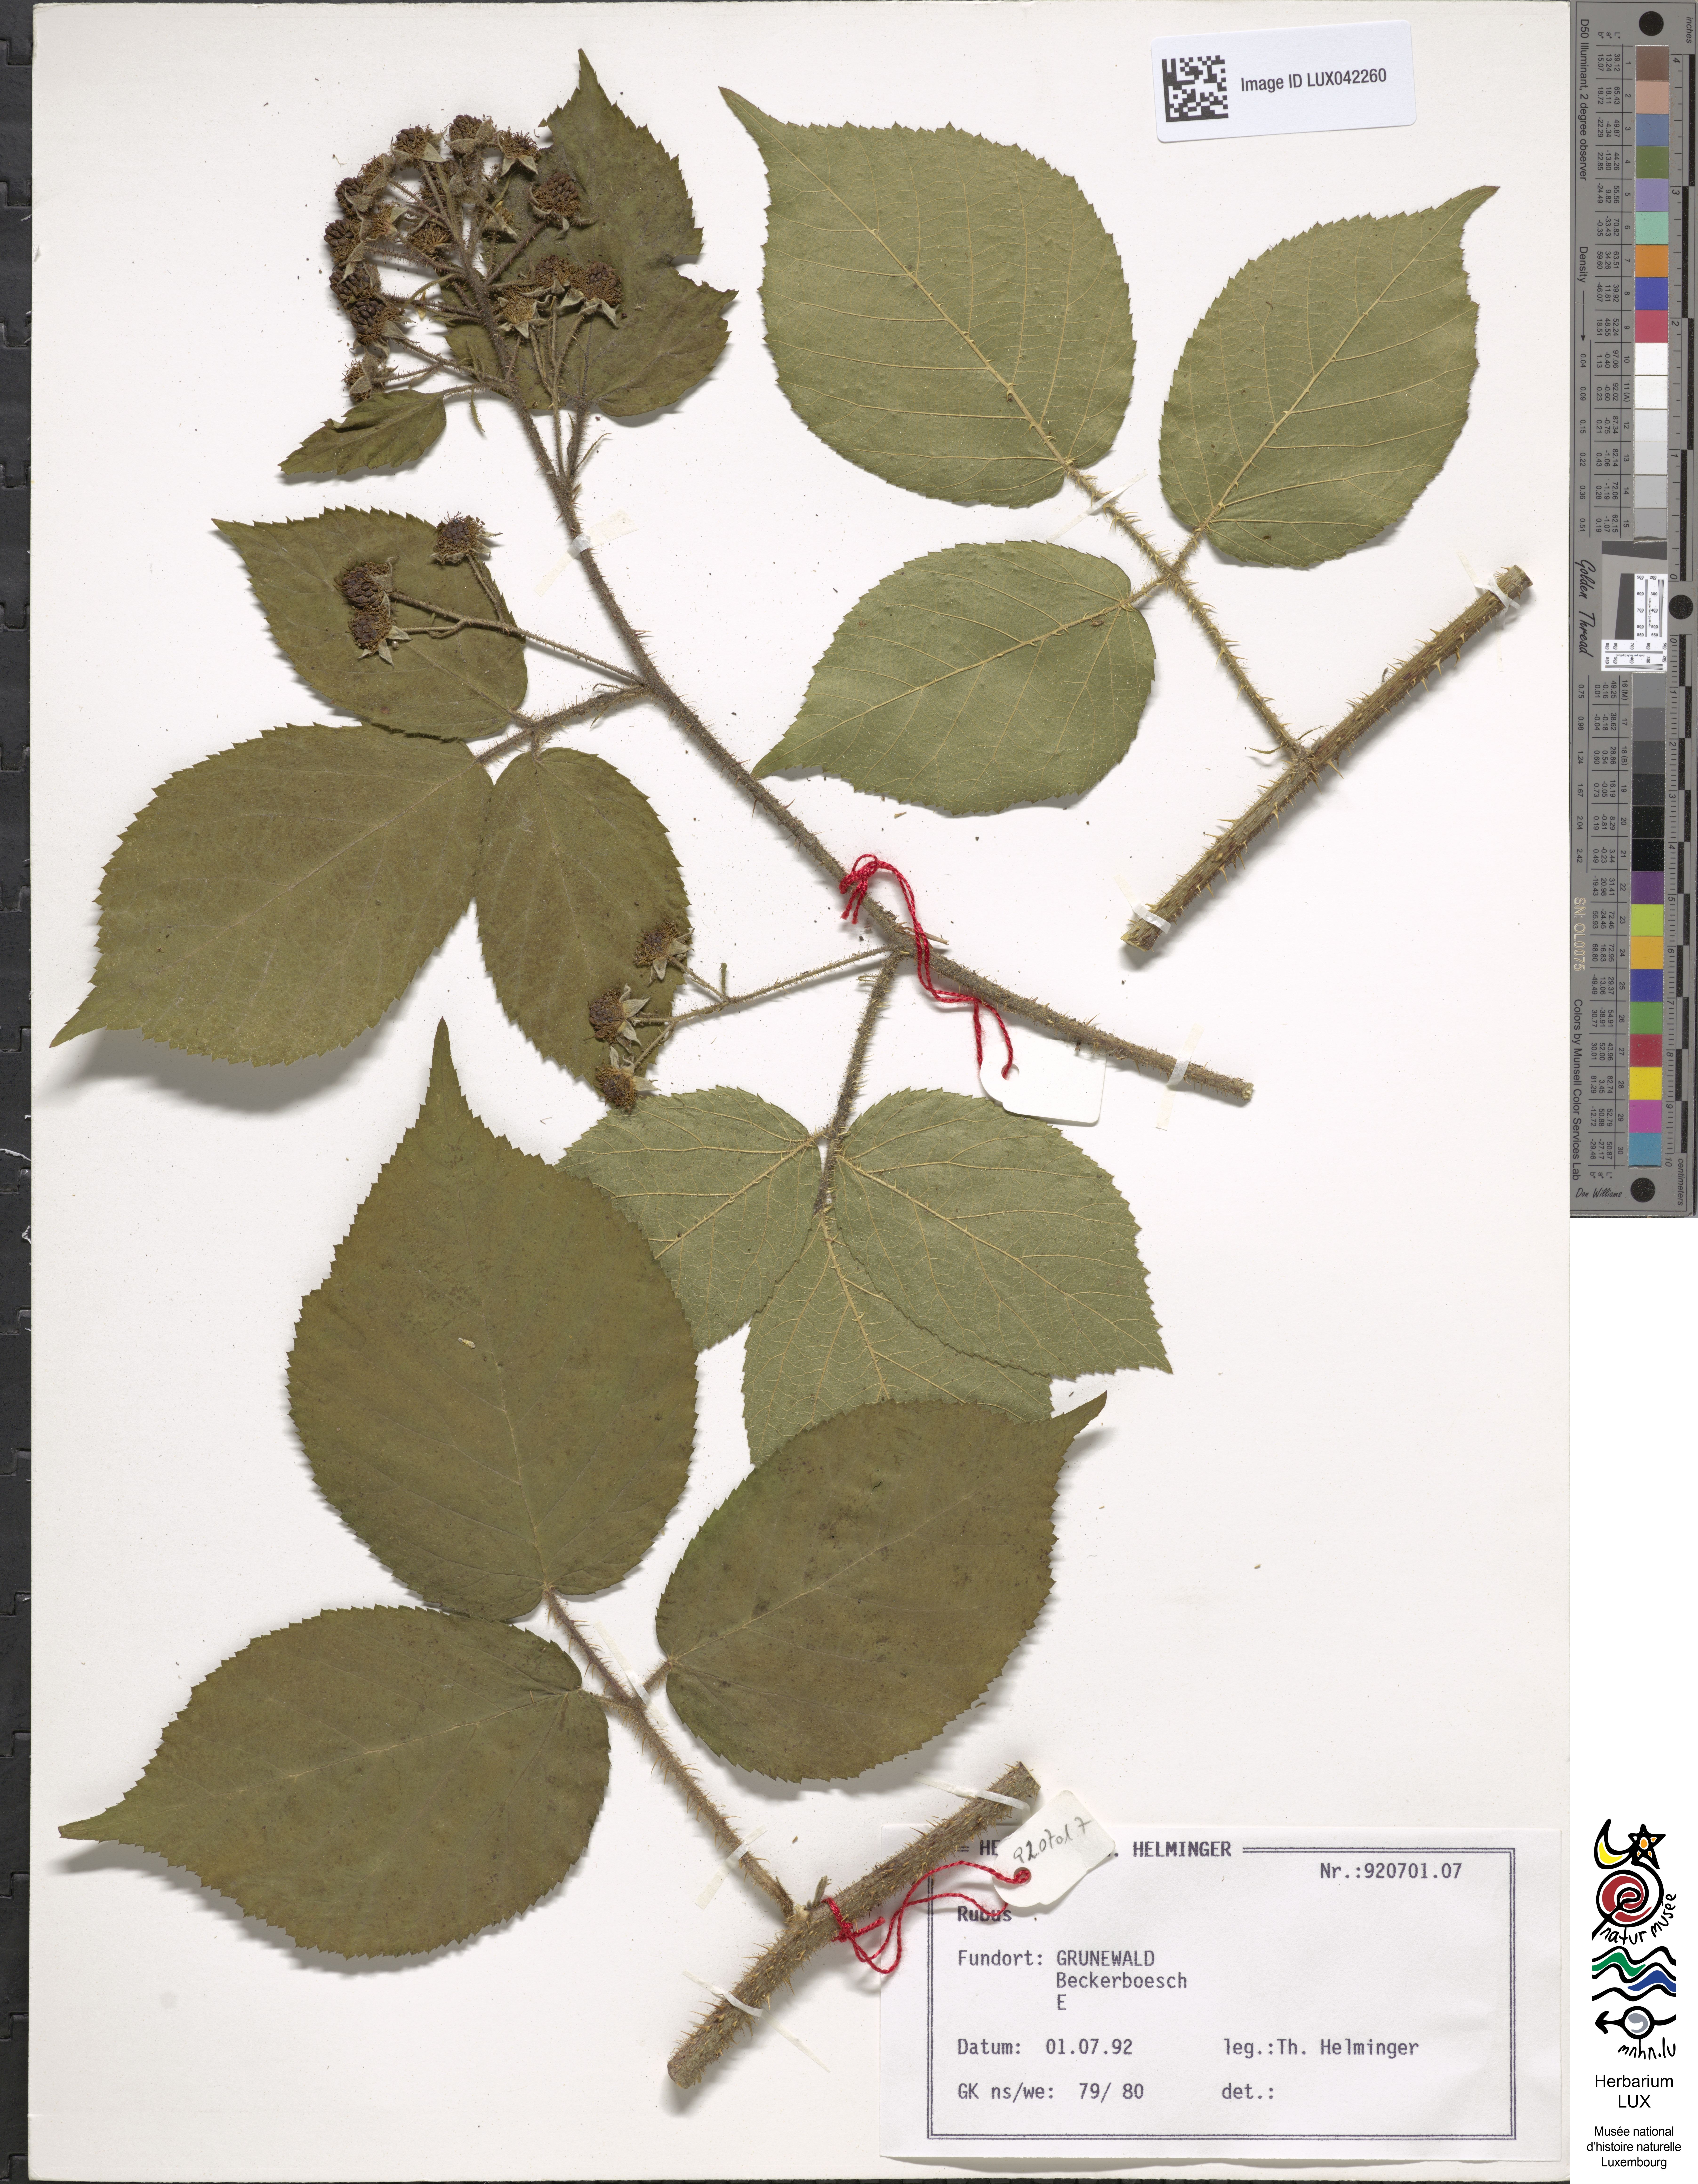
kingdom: Plantae
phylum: Tracheophyta
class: Magnoliopsida
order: Rosales
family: Rosaceae
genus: Rubus
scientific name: Rubus
